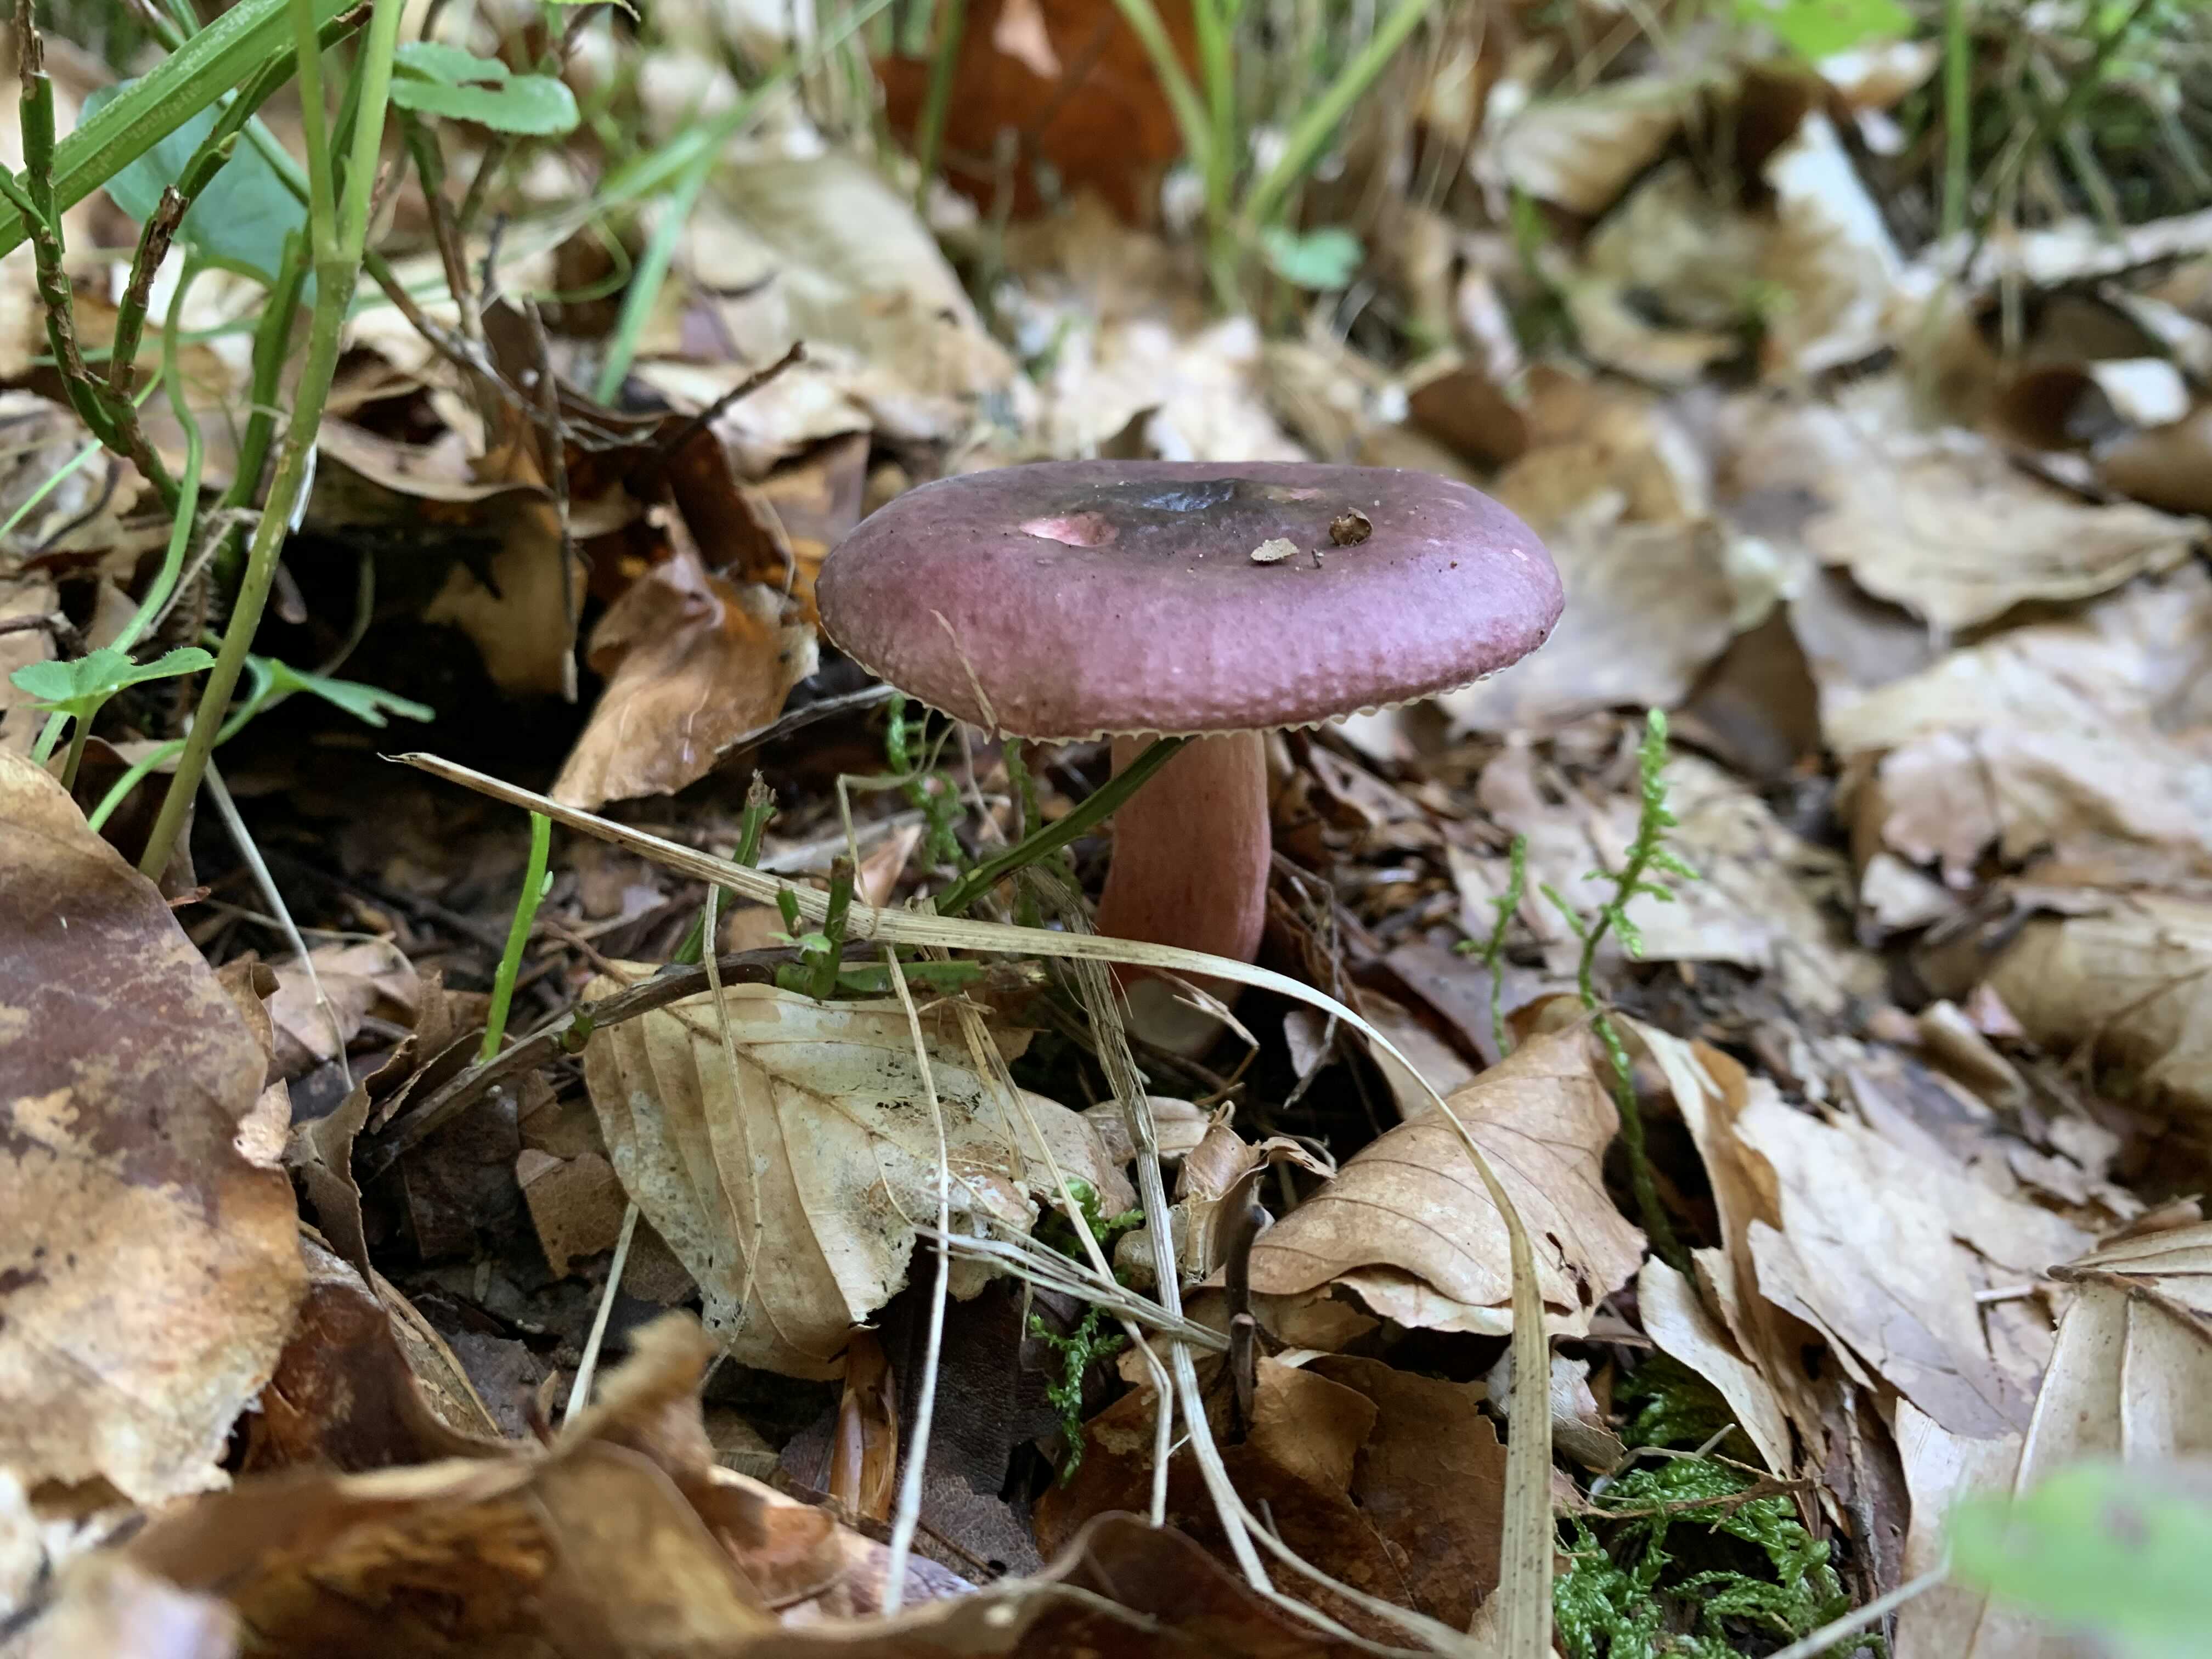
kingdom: Fungi
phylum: Basidiomycota
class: Agaricomycetes
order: Russulales
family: Russulaceae
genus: Russula
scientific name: Russula queletii
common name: Quélets skørhat
